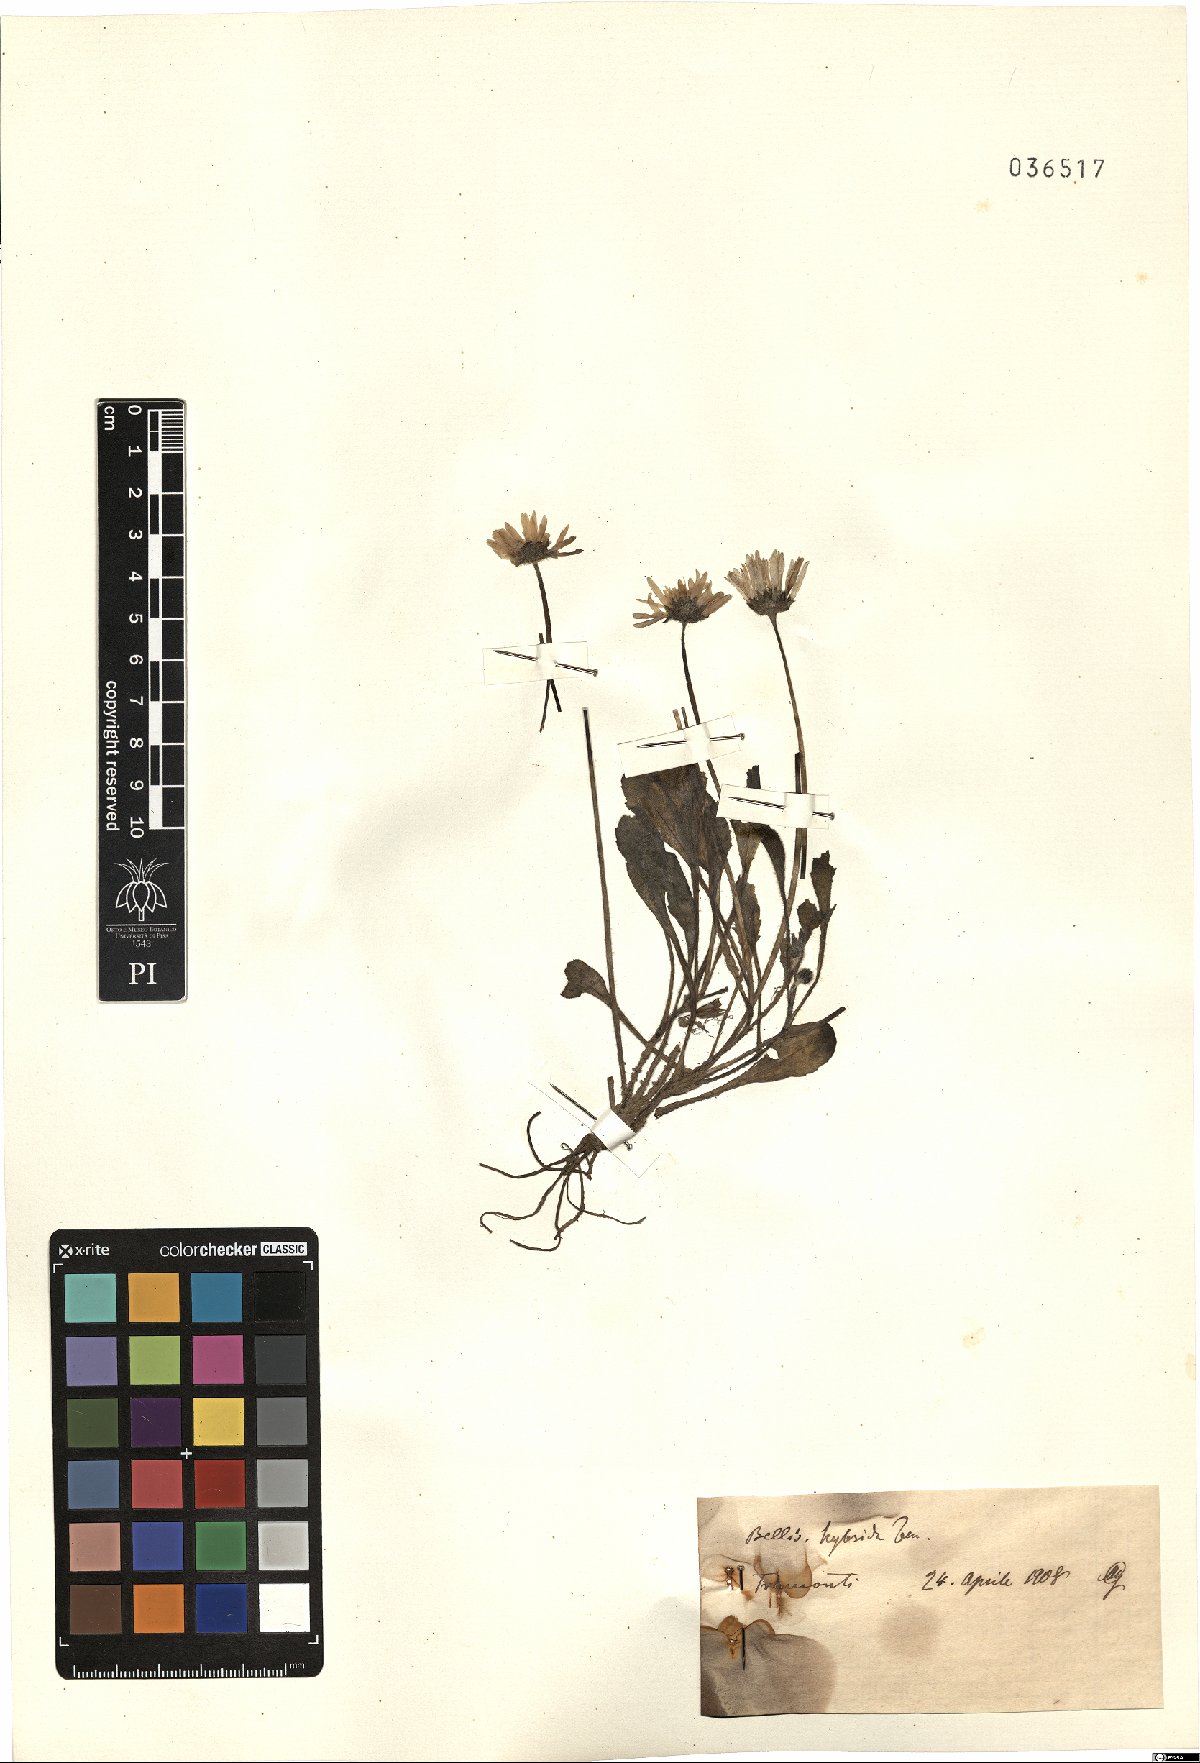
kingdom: Plantae
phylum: Tracheophyta
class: Magnoliopsida
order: Asterales
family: Asteraceae
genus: Bellis
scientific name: Bellis perennis
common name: Lawndaisy
